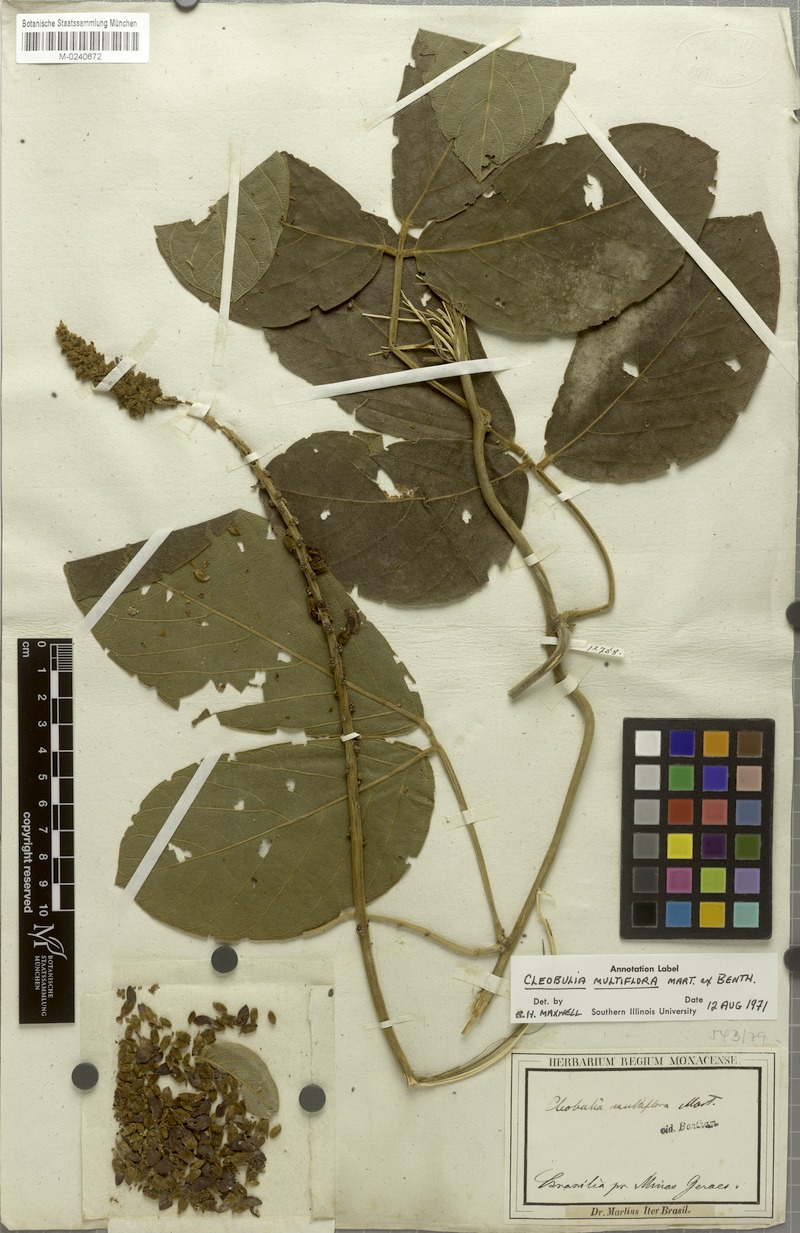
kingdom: Plantae
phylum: Tracheophyta
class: Magnoliopsida
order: Fabales
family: Fabaceae
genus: Cleobulia
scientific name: Cleobulia coccinea
